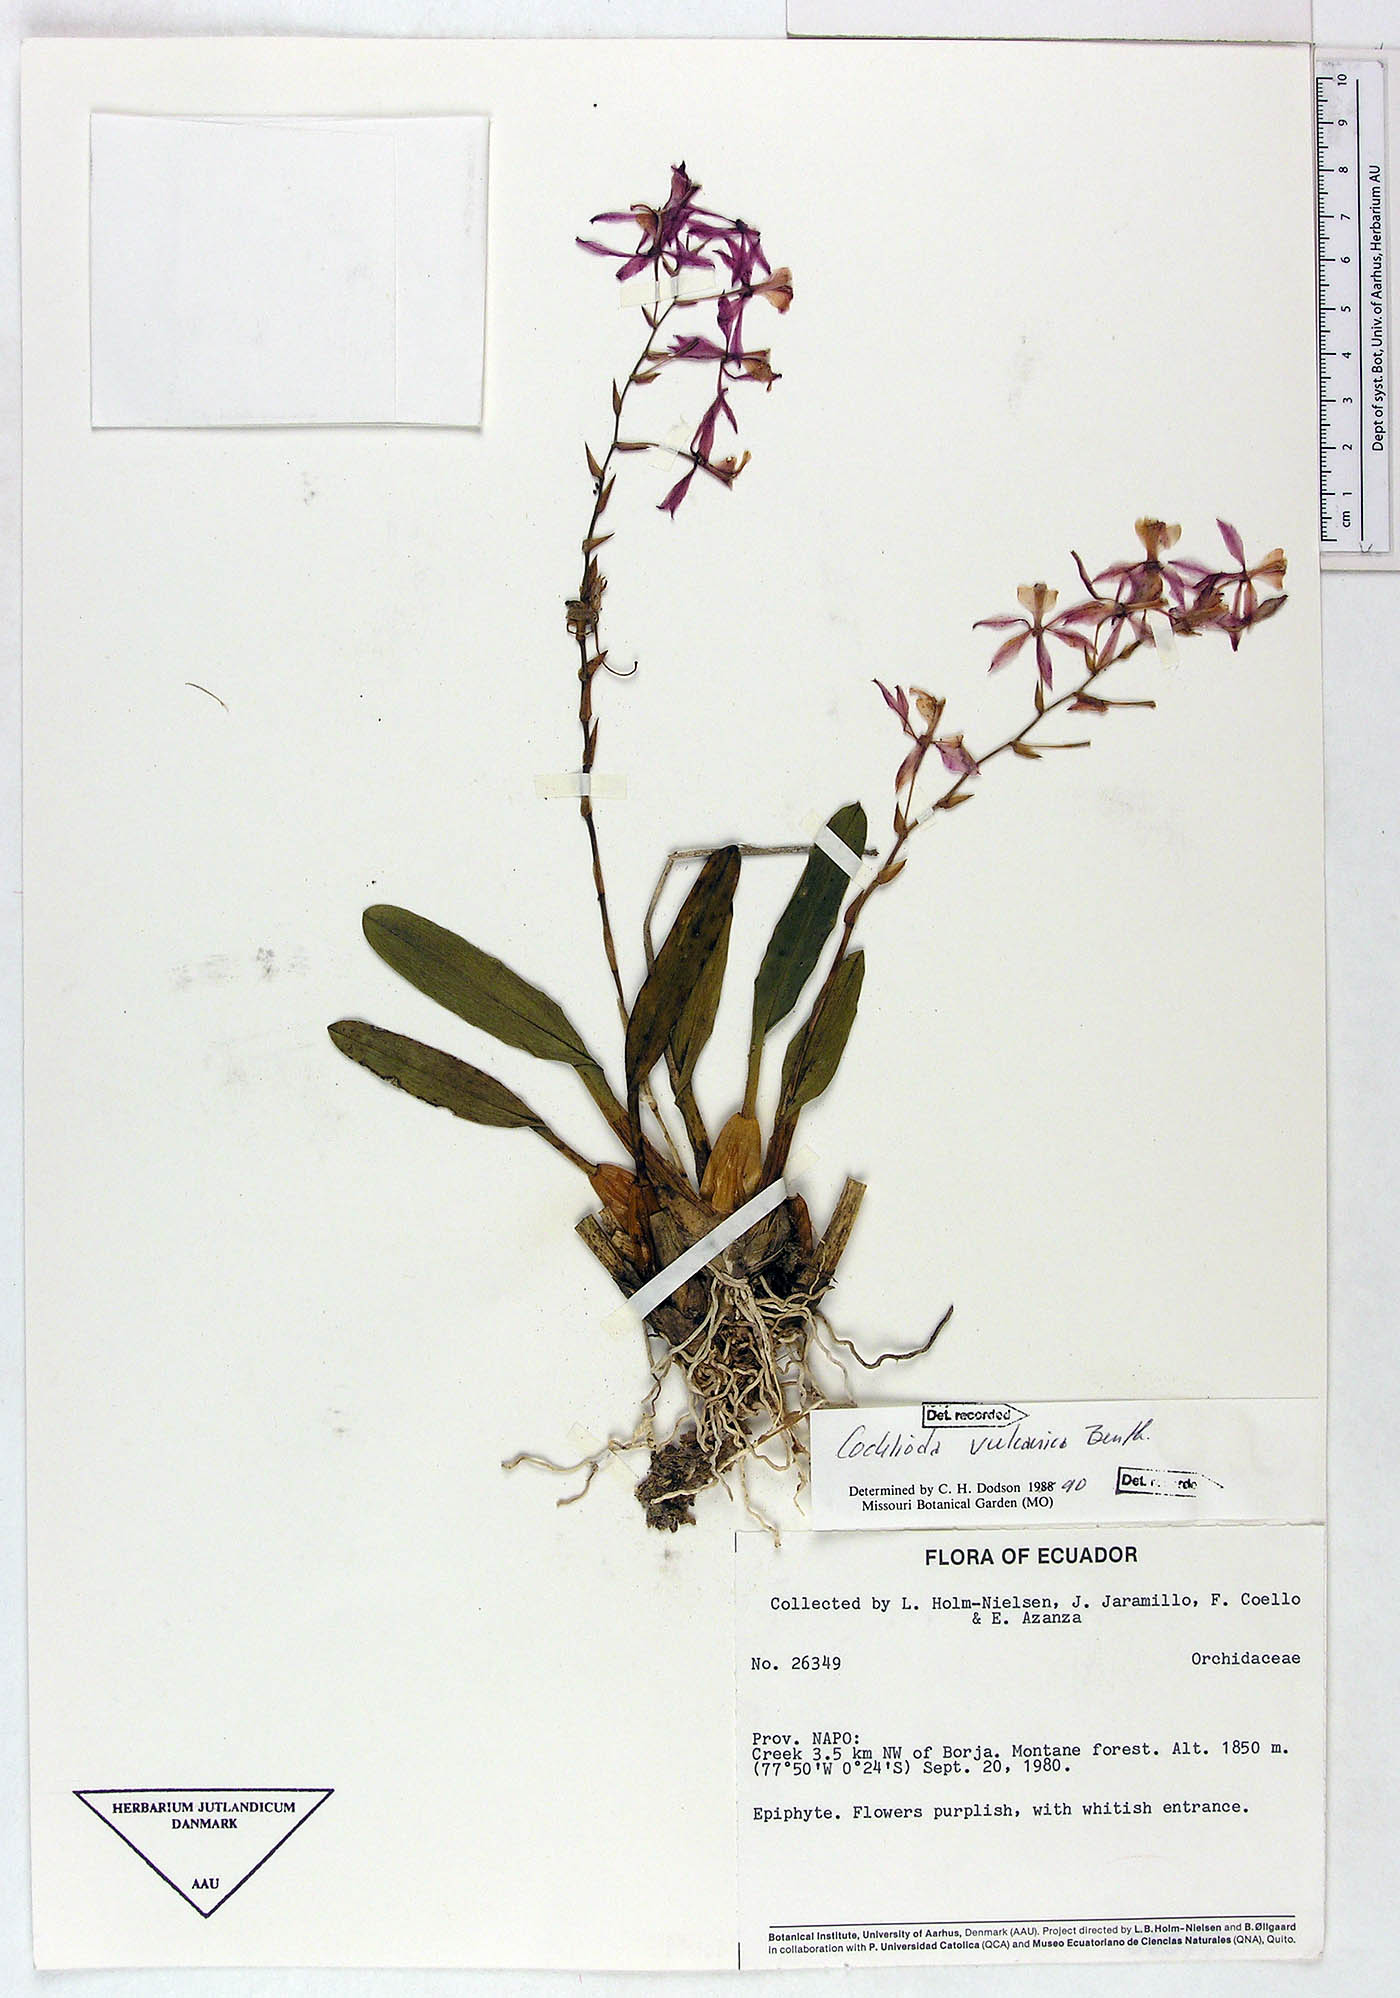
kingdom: Plantae
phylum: Tracheophyta
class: Liliopsida
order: Asparagales
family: Orchidaceae
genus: Oncidium
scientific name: Oncidium vulcanicum
